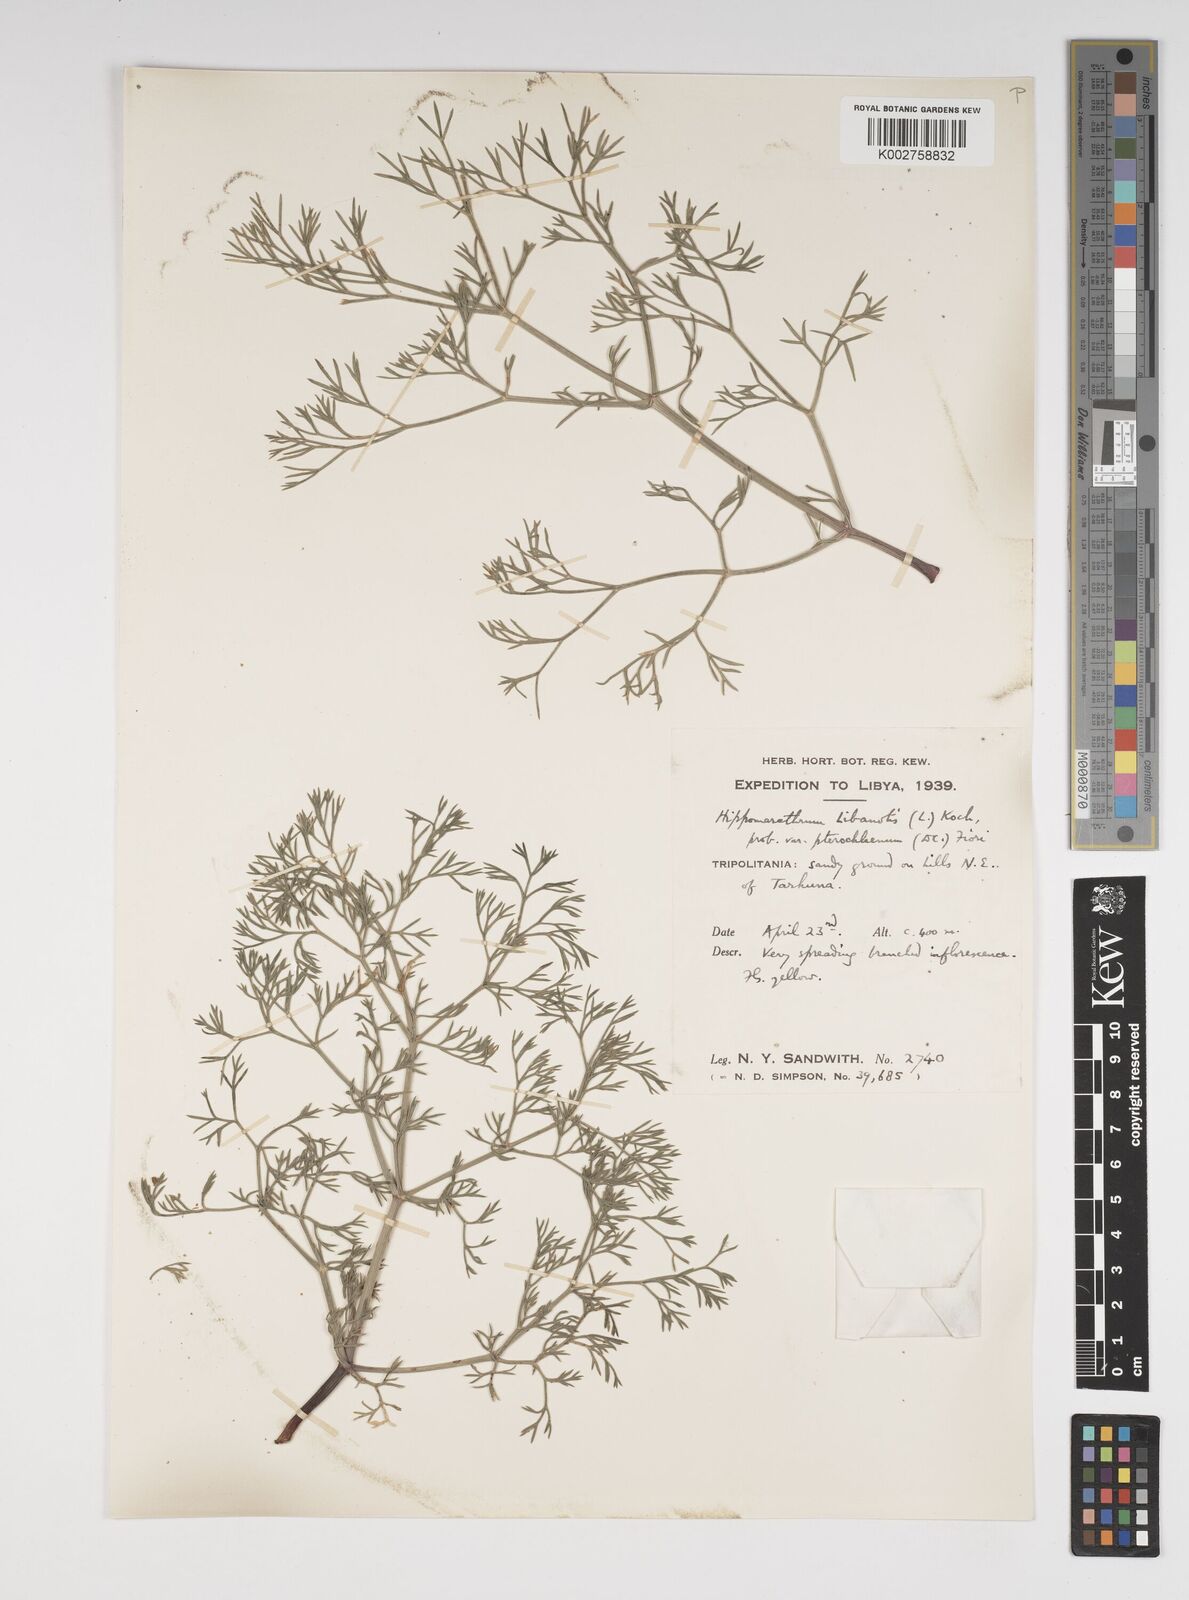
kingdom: Plantae
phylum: Tracheophyta
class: Magnoliopsida
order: Apiales
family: Apiaceae
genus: Cachrys
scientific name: Cachrys sicula
